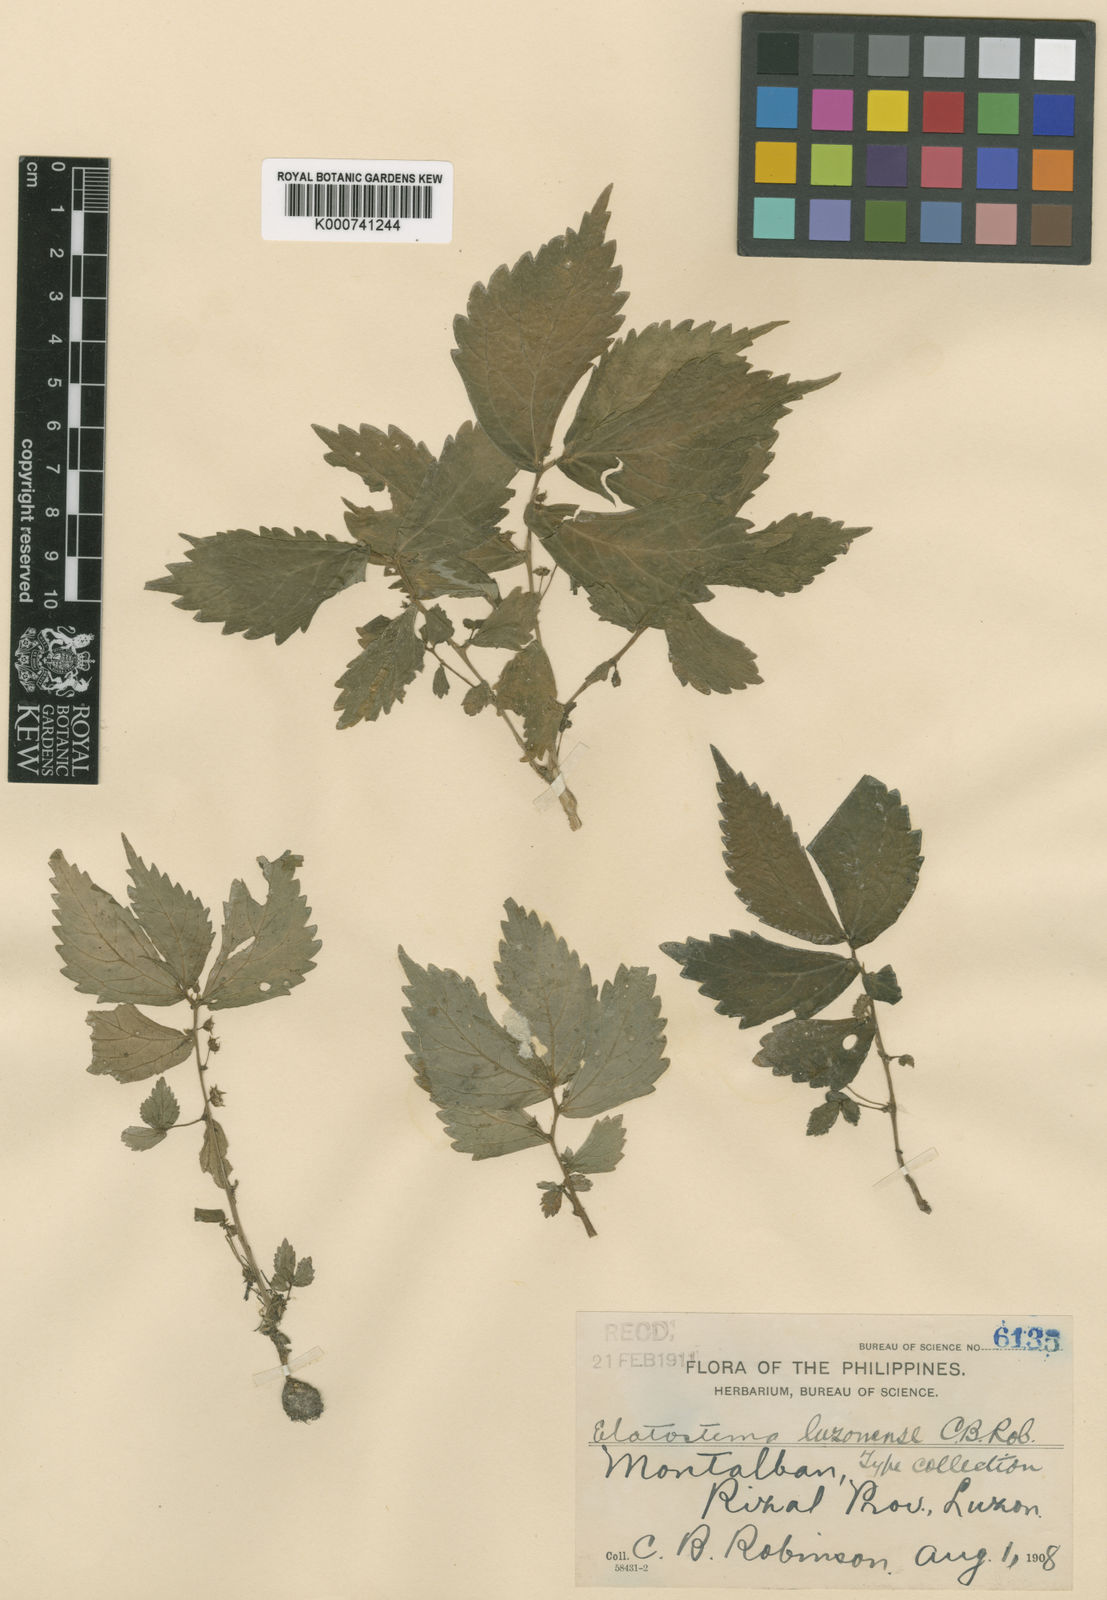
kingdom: Plantae
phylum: Tracheophyta
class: Magnoliopsida
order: Rosales
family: Urticaceae
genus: Elatostema
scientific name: Elatostema luzonense
